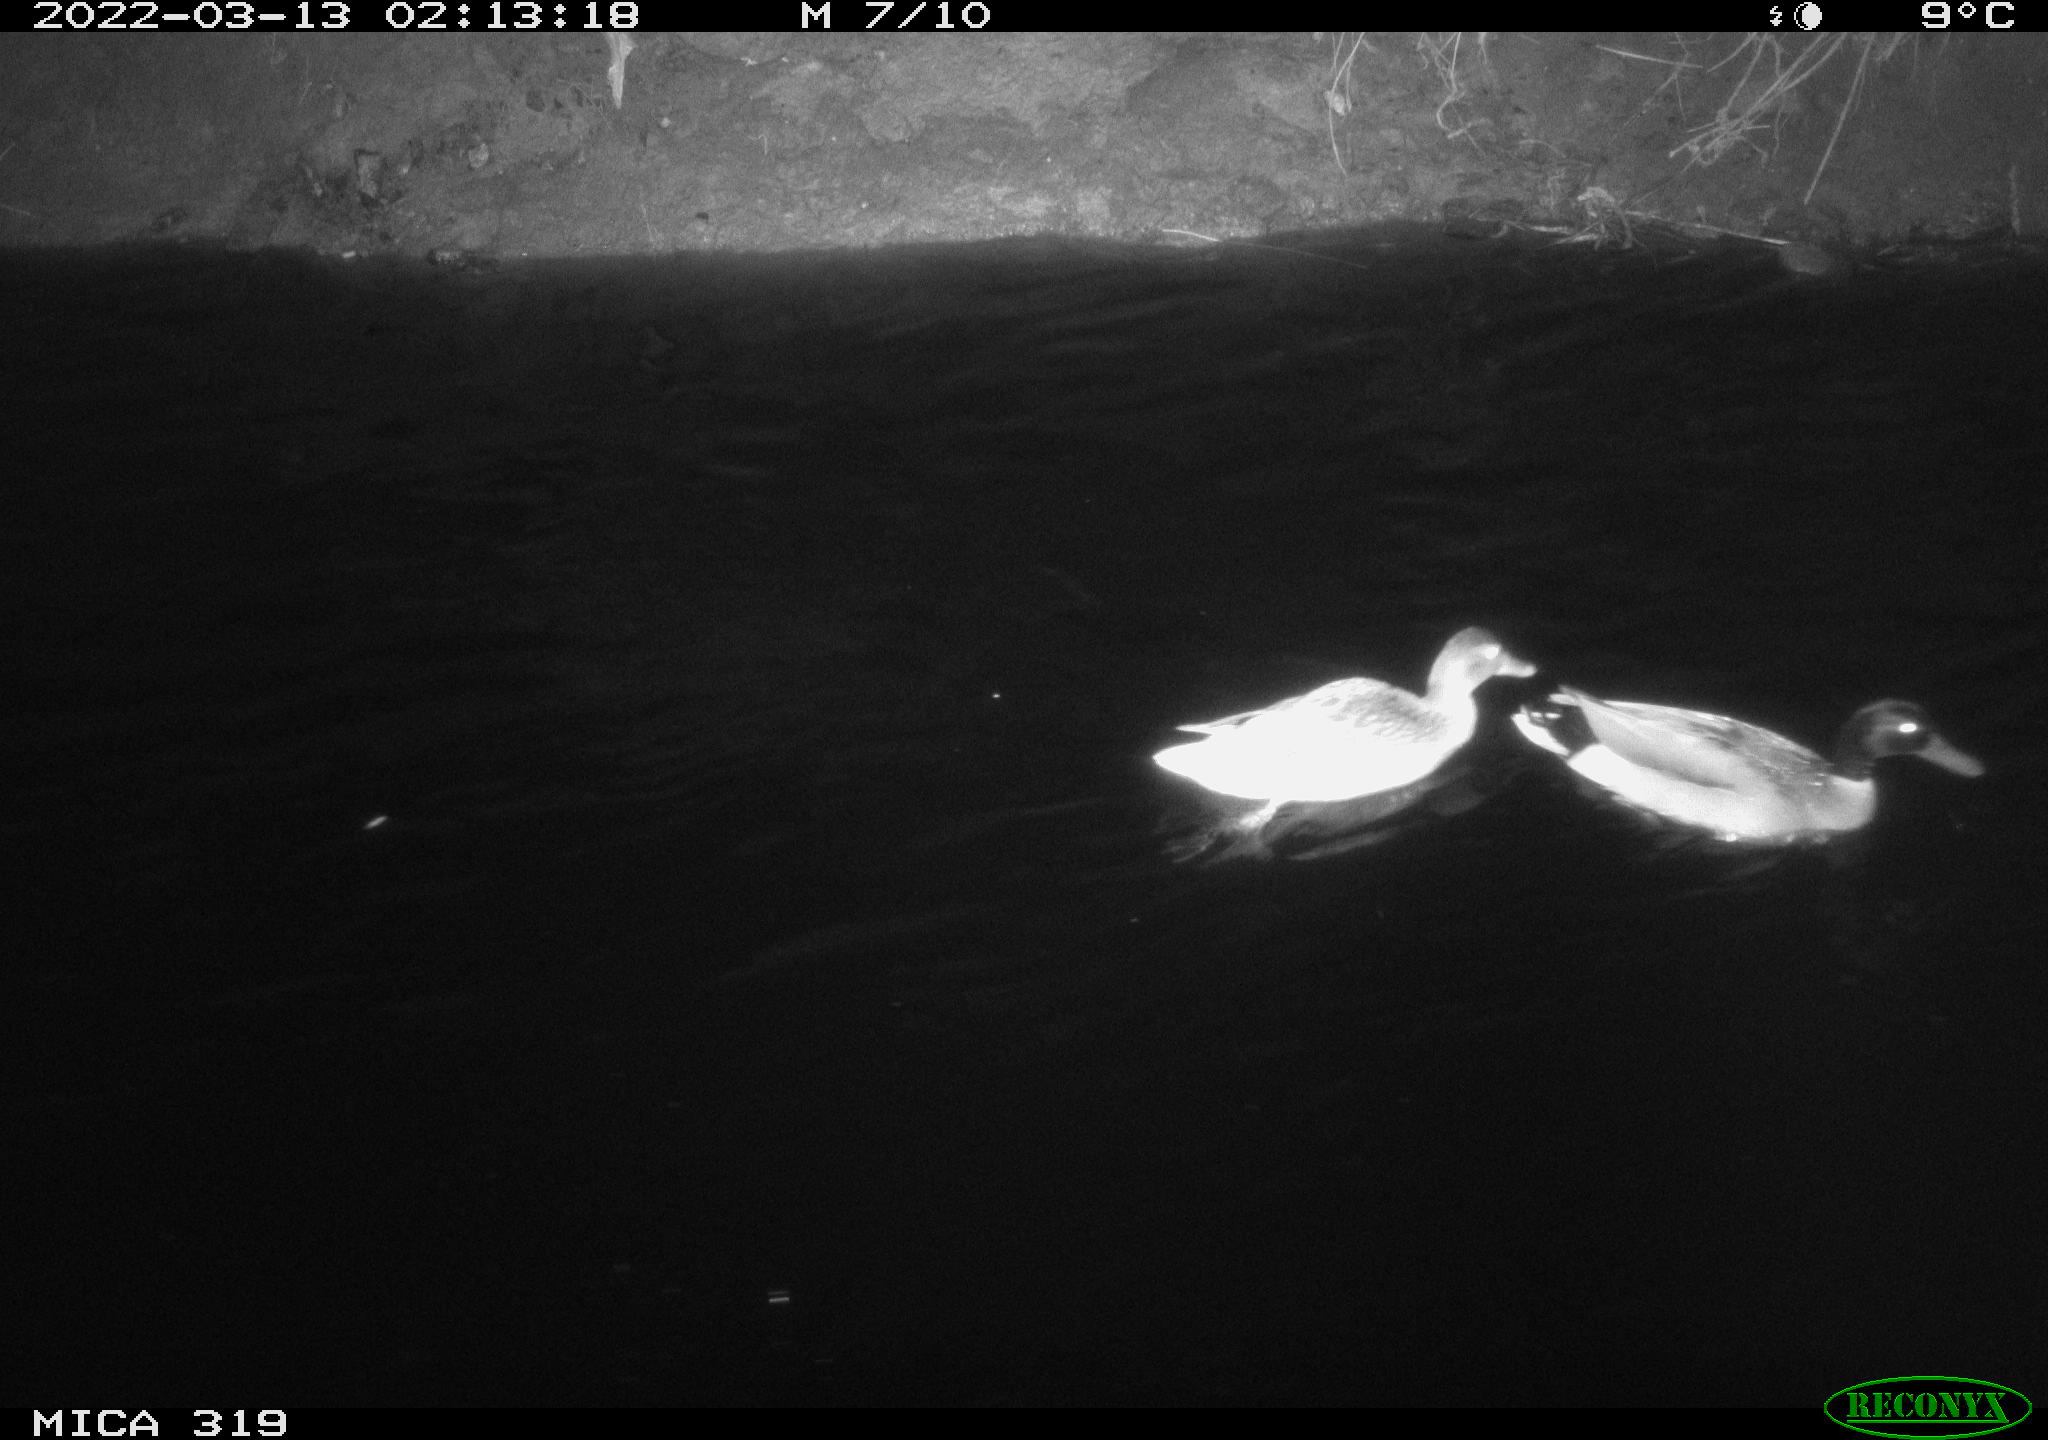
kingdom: Animalia
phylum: Chordata
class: Aves
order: Anseriformes
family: Anatidae
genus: Anas
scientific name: Anas platyrhynchos
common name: Mallard
